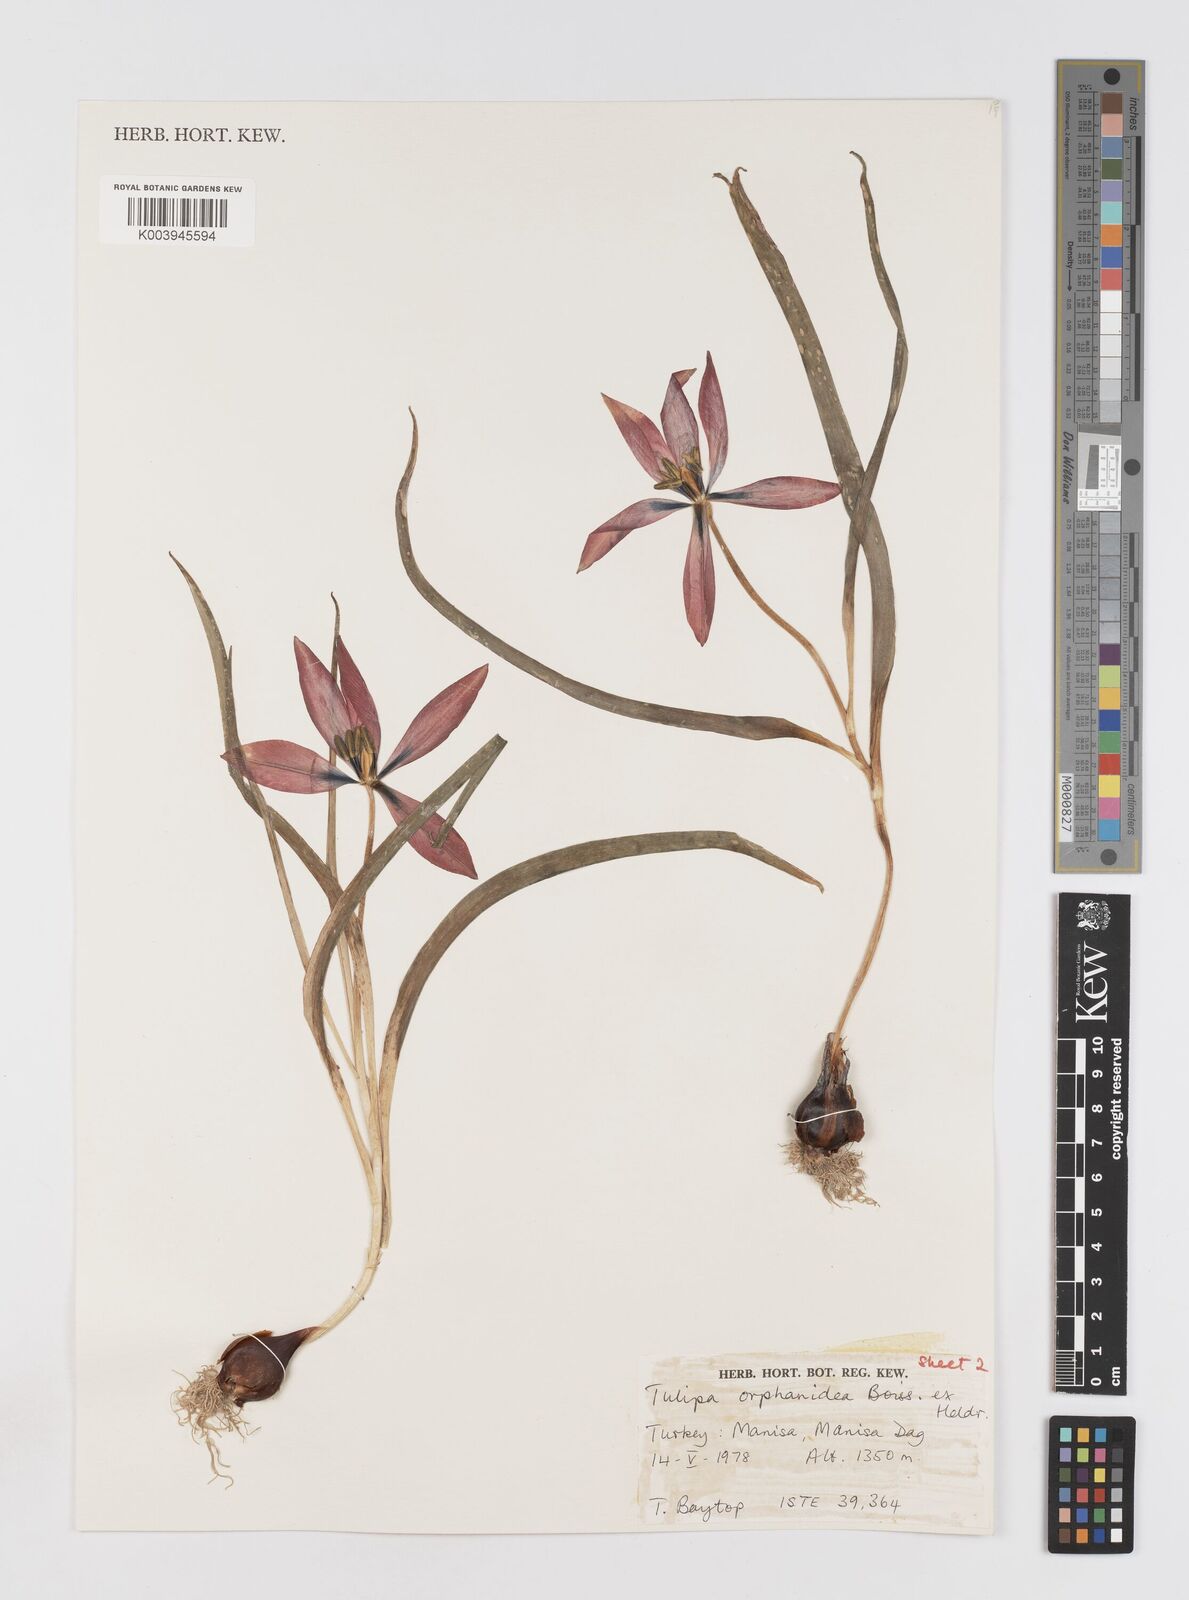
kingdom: Plantae
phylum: Tracheophyta
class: Liliopsida
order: Liliales
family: Liliaceae
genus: Tulipa
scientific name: Tulipa orphanidea
